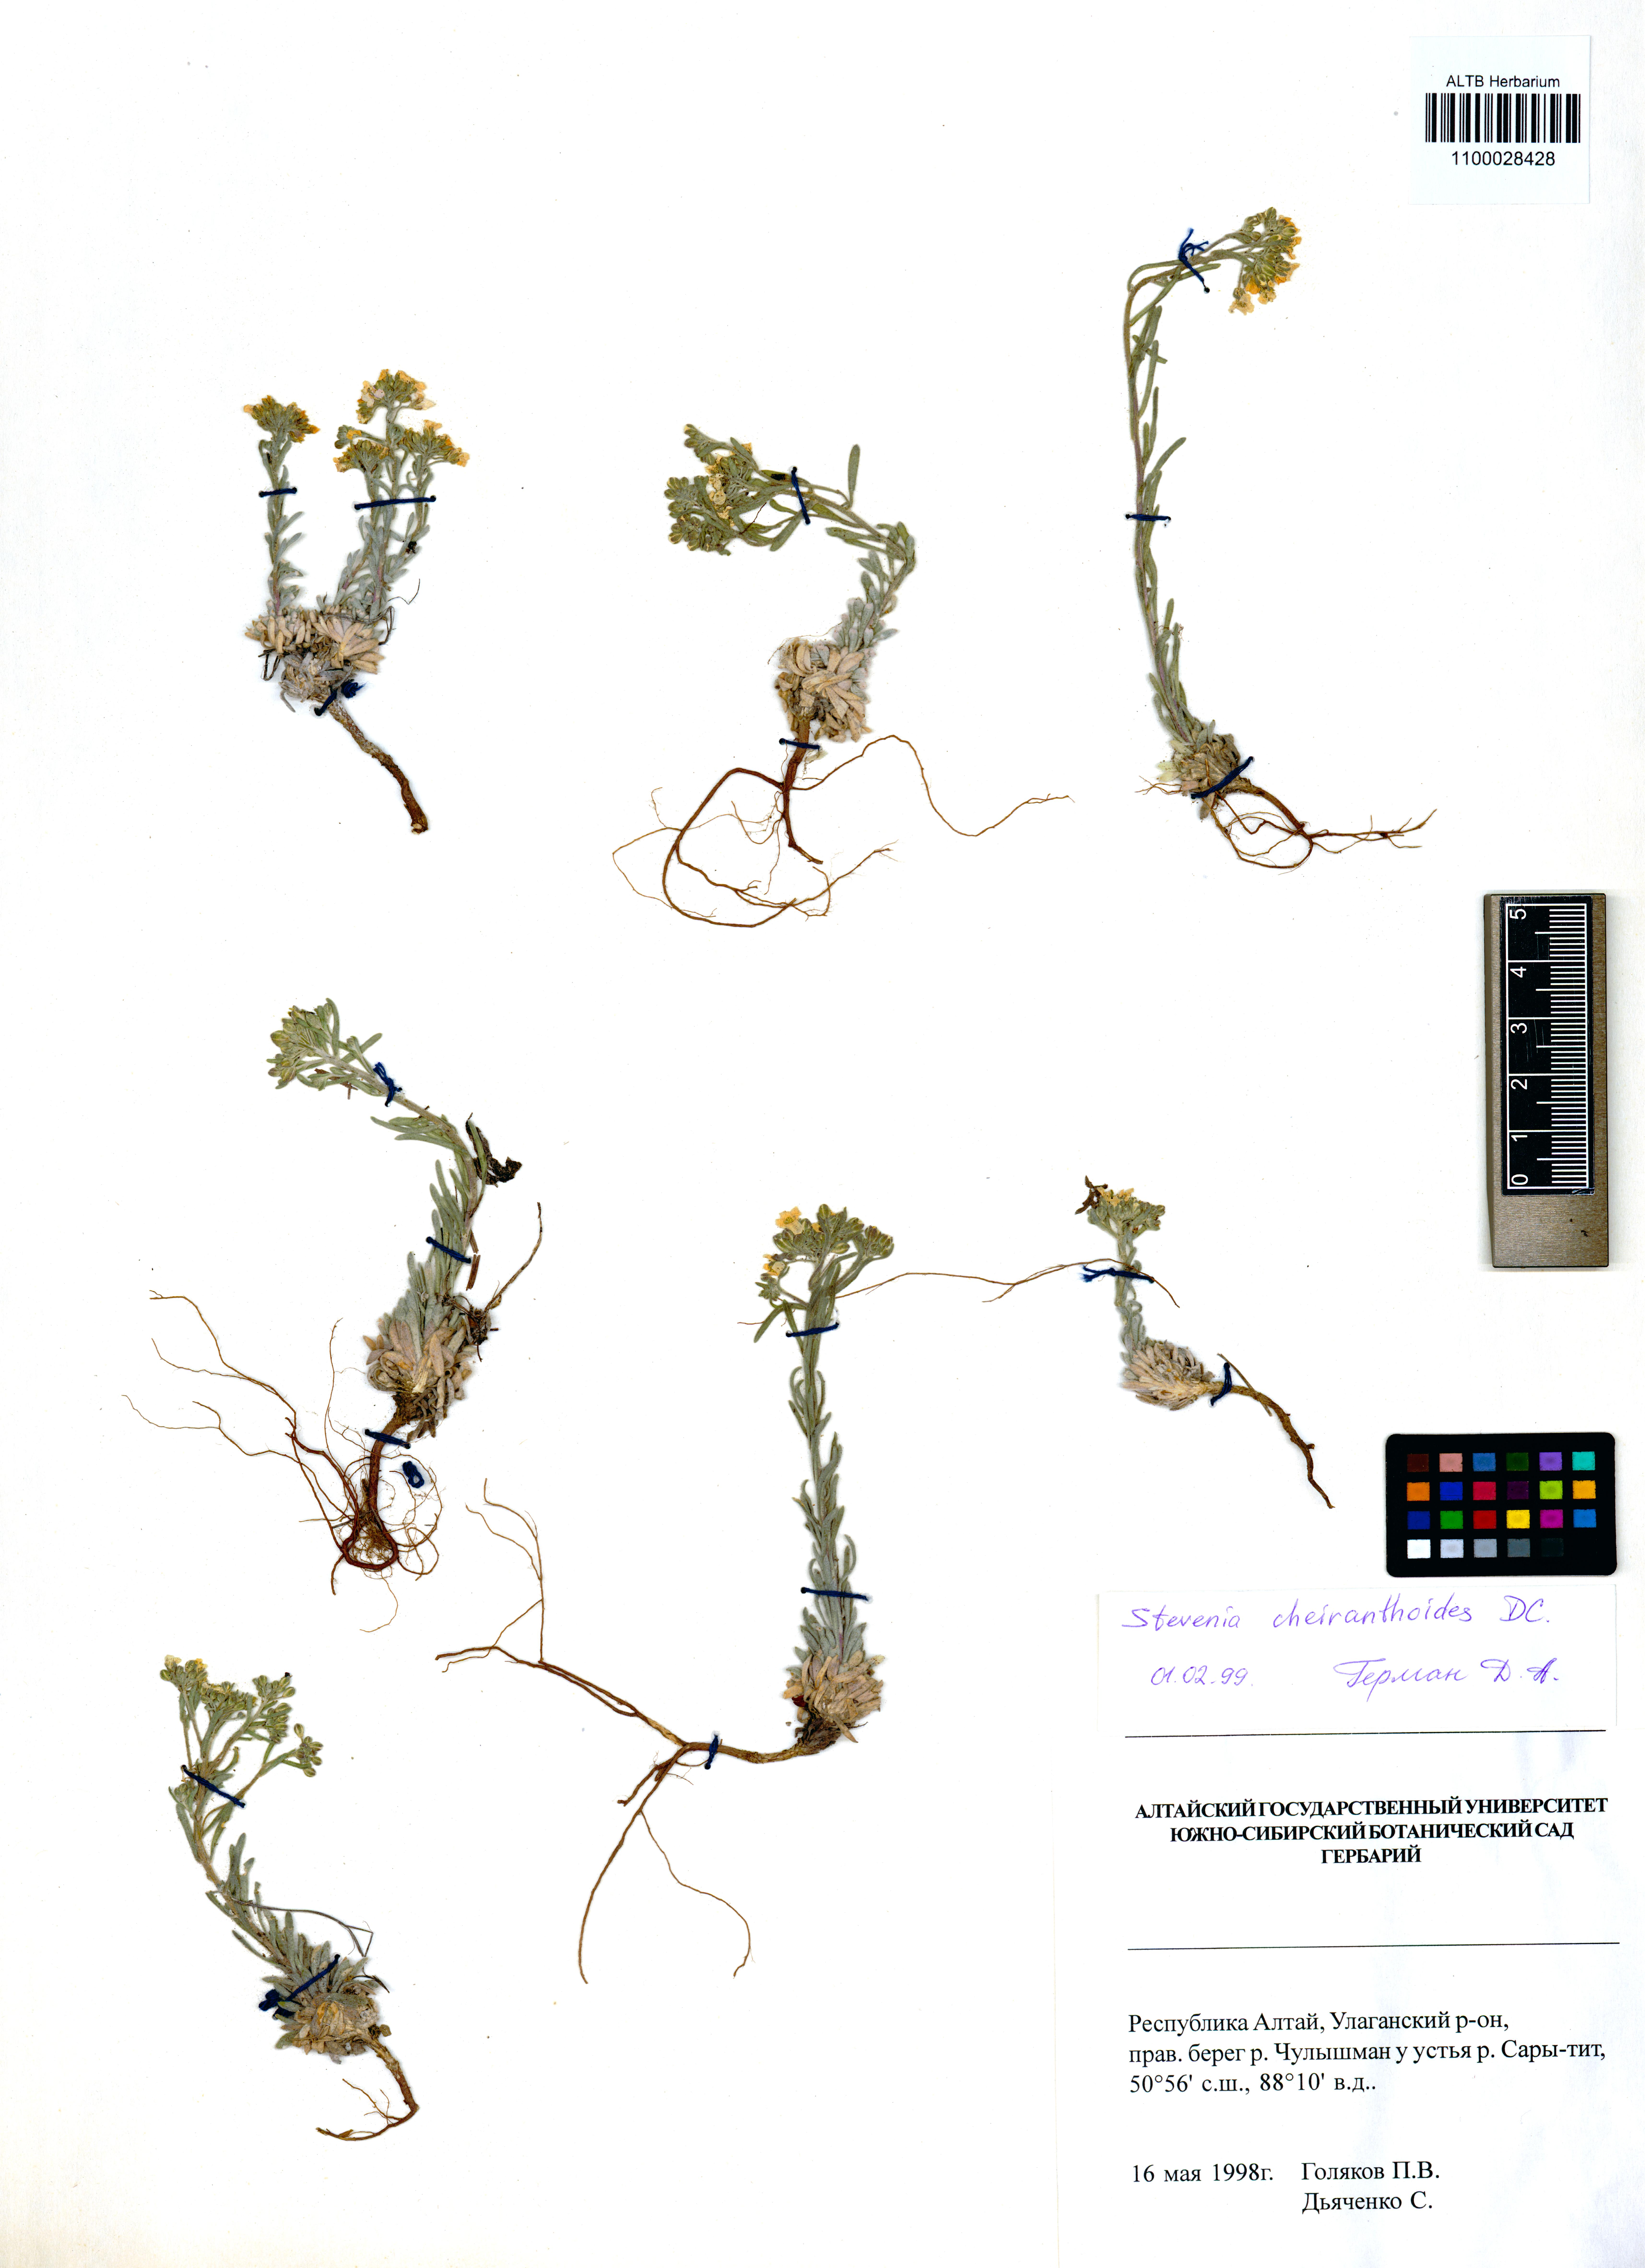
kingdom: Plantae
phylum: Tracheophyta
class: Magnoliopsida
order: Brassicales
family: Brassicaceae
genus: Stevenia
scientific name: Stevenia incarnata
